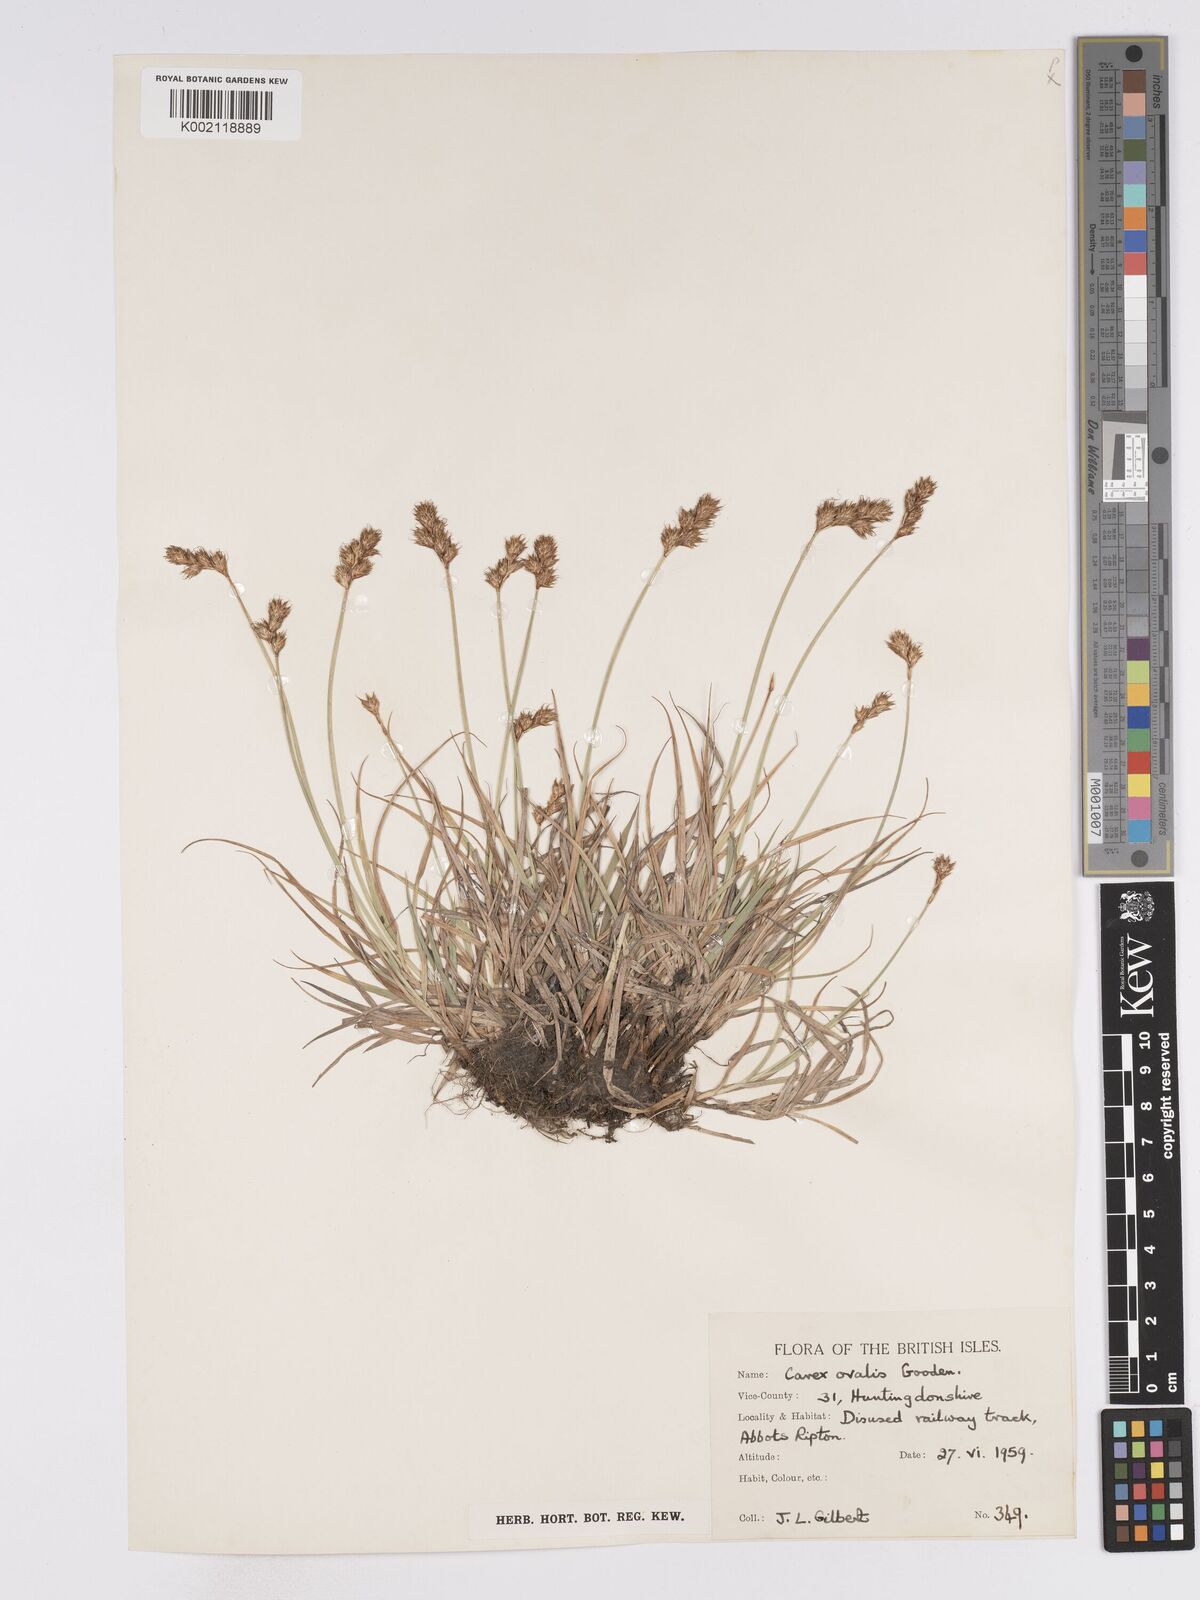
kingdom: Plantae
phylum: Tracheophyta
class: Liliopsida
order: Poales
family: Cyperaceae
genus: Carex
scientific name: Carex leporina
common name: Oval sedge
